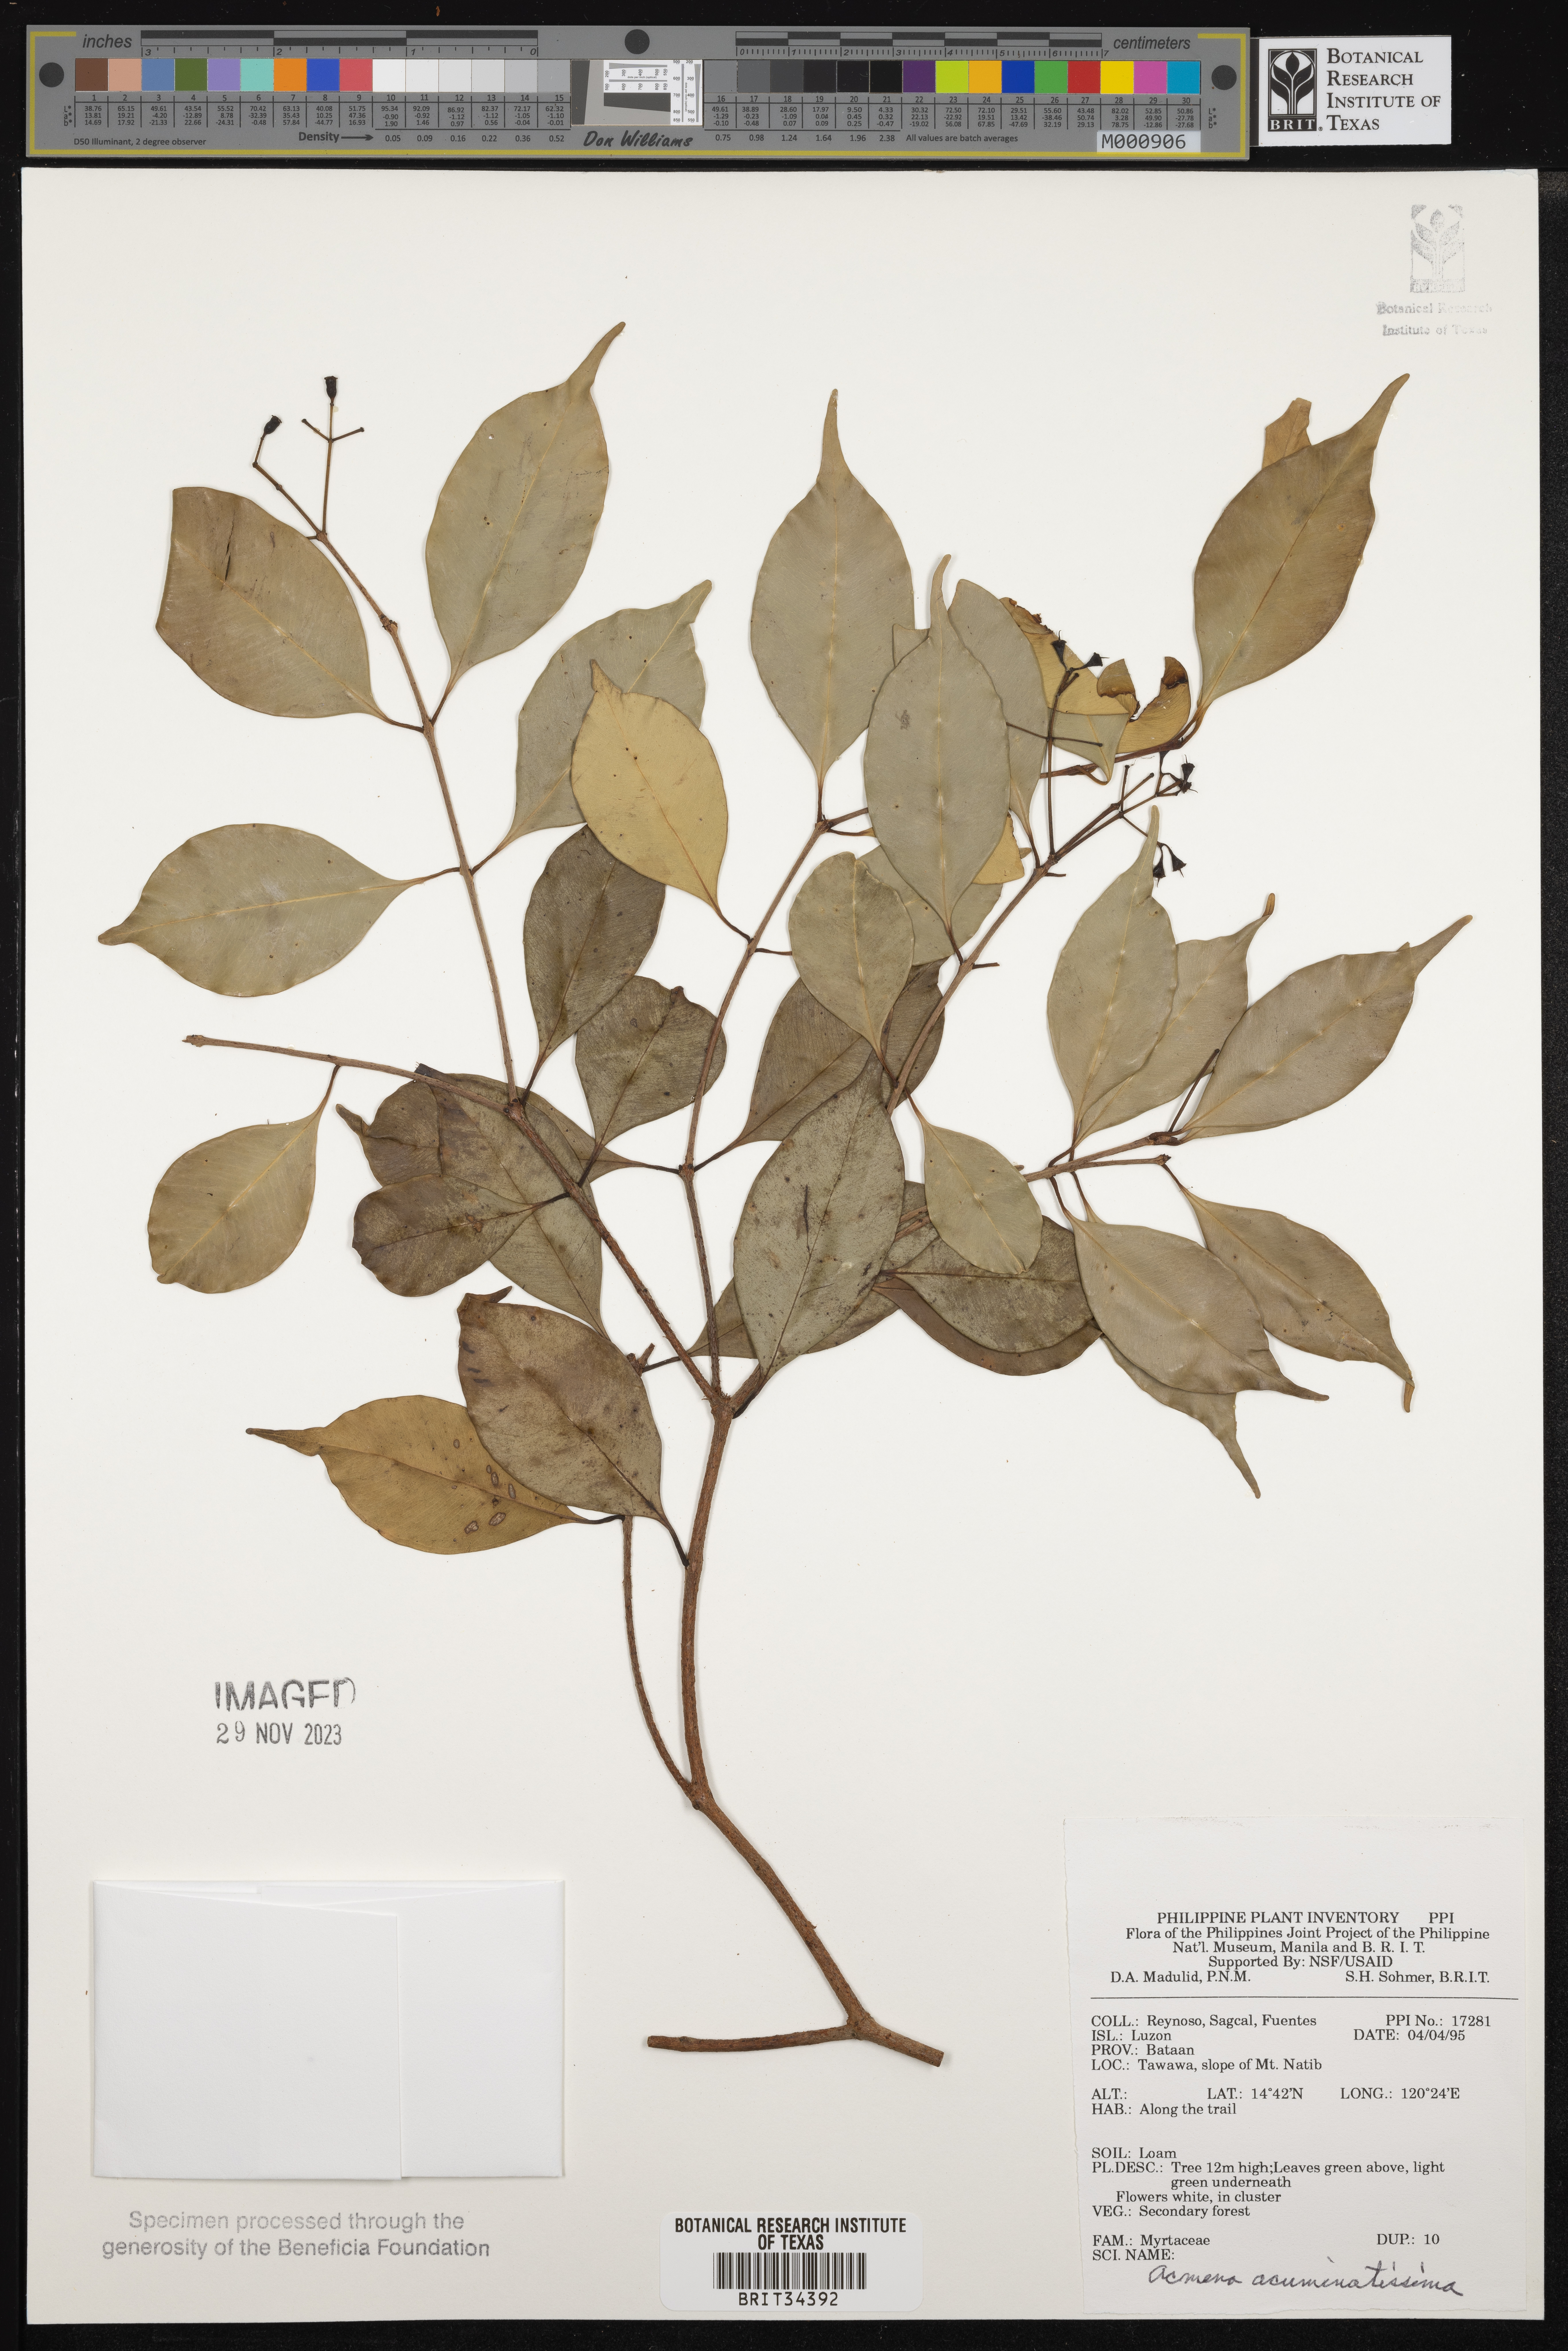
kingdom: Plantae
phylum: Tracheophyta
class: Magnoliopsida
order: Myrtales
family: Myrtaceae
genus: Syzygium
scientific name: Syzygium acuminatissimum
